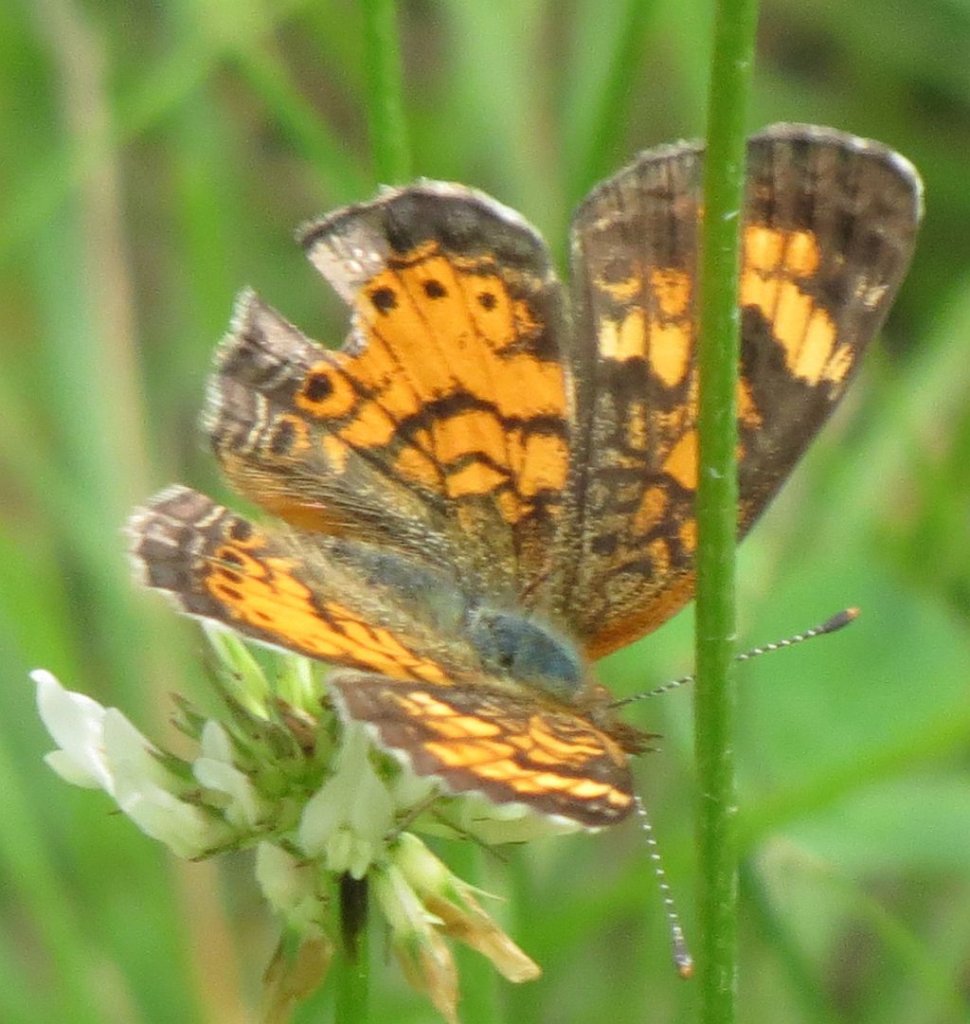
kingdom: Animalia
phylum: Arthropoda
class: Insecta
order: Lepidoptera
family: Nymphalidae
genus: Phyciodes
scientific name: Phyciodes tharos
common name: Northern Crescent
